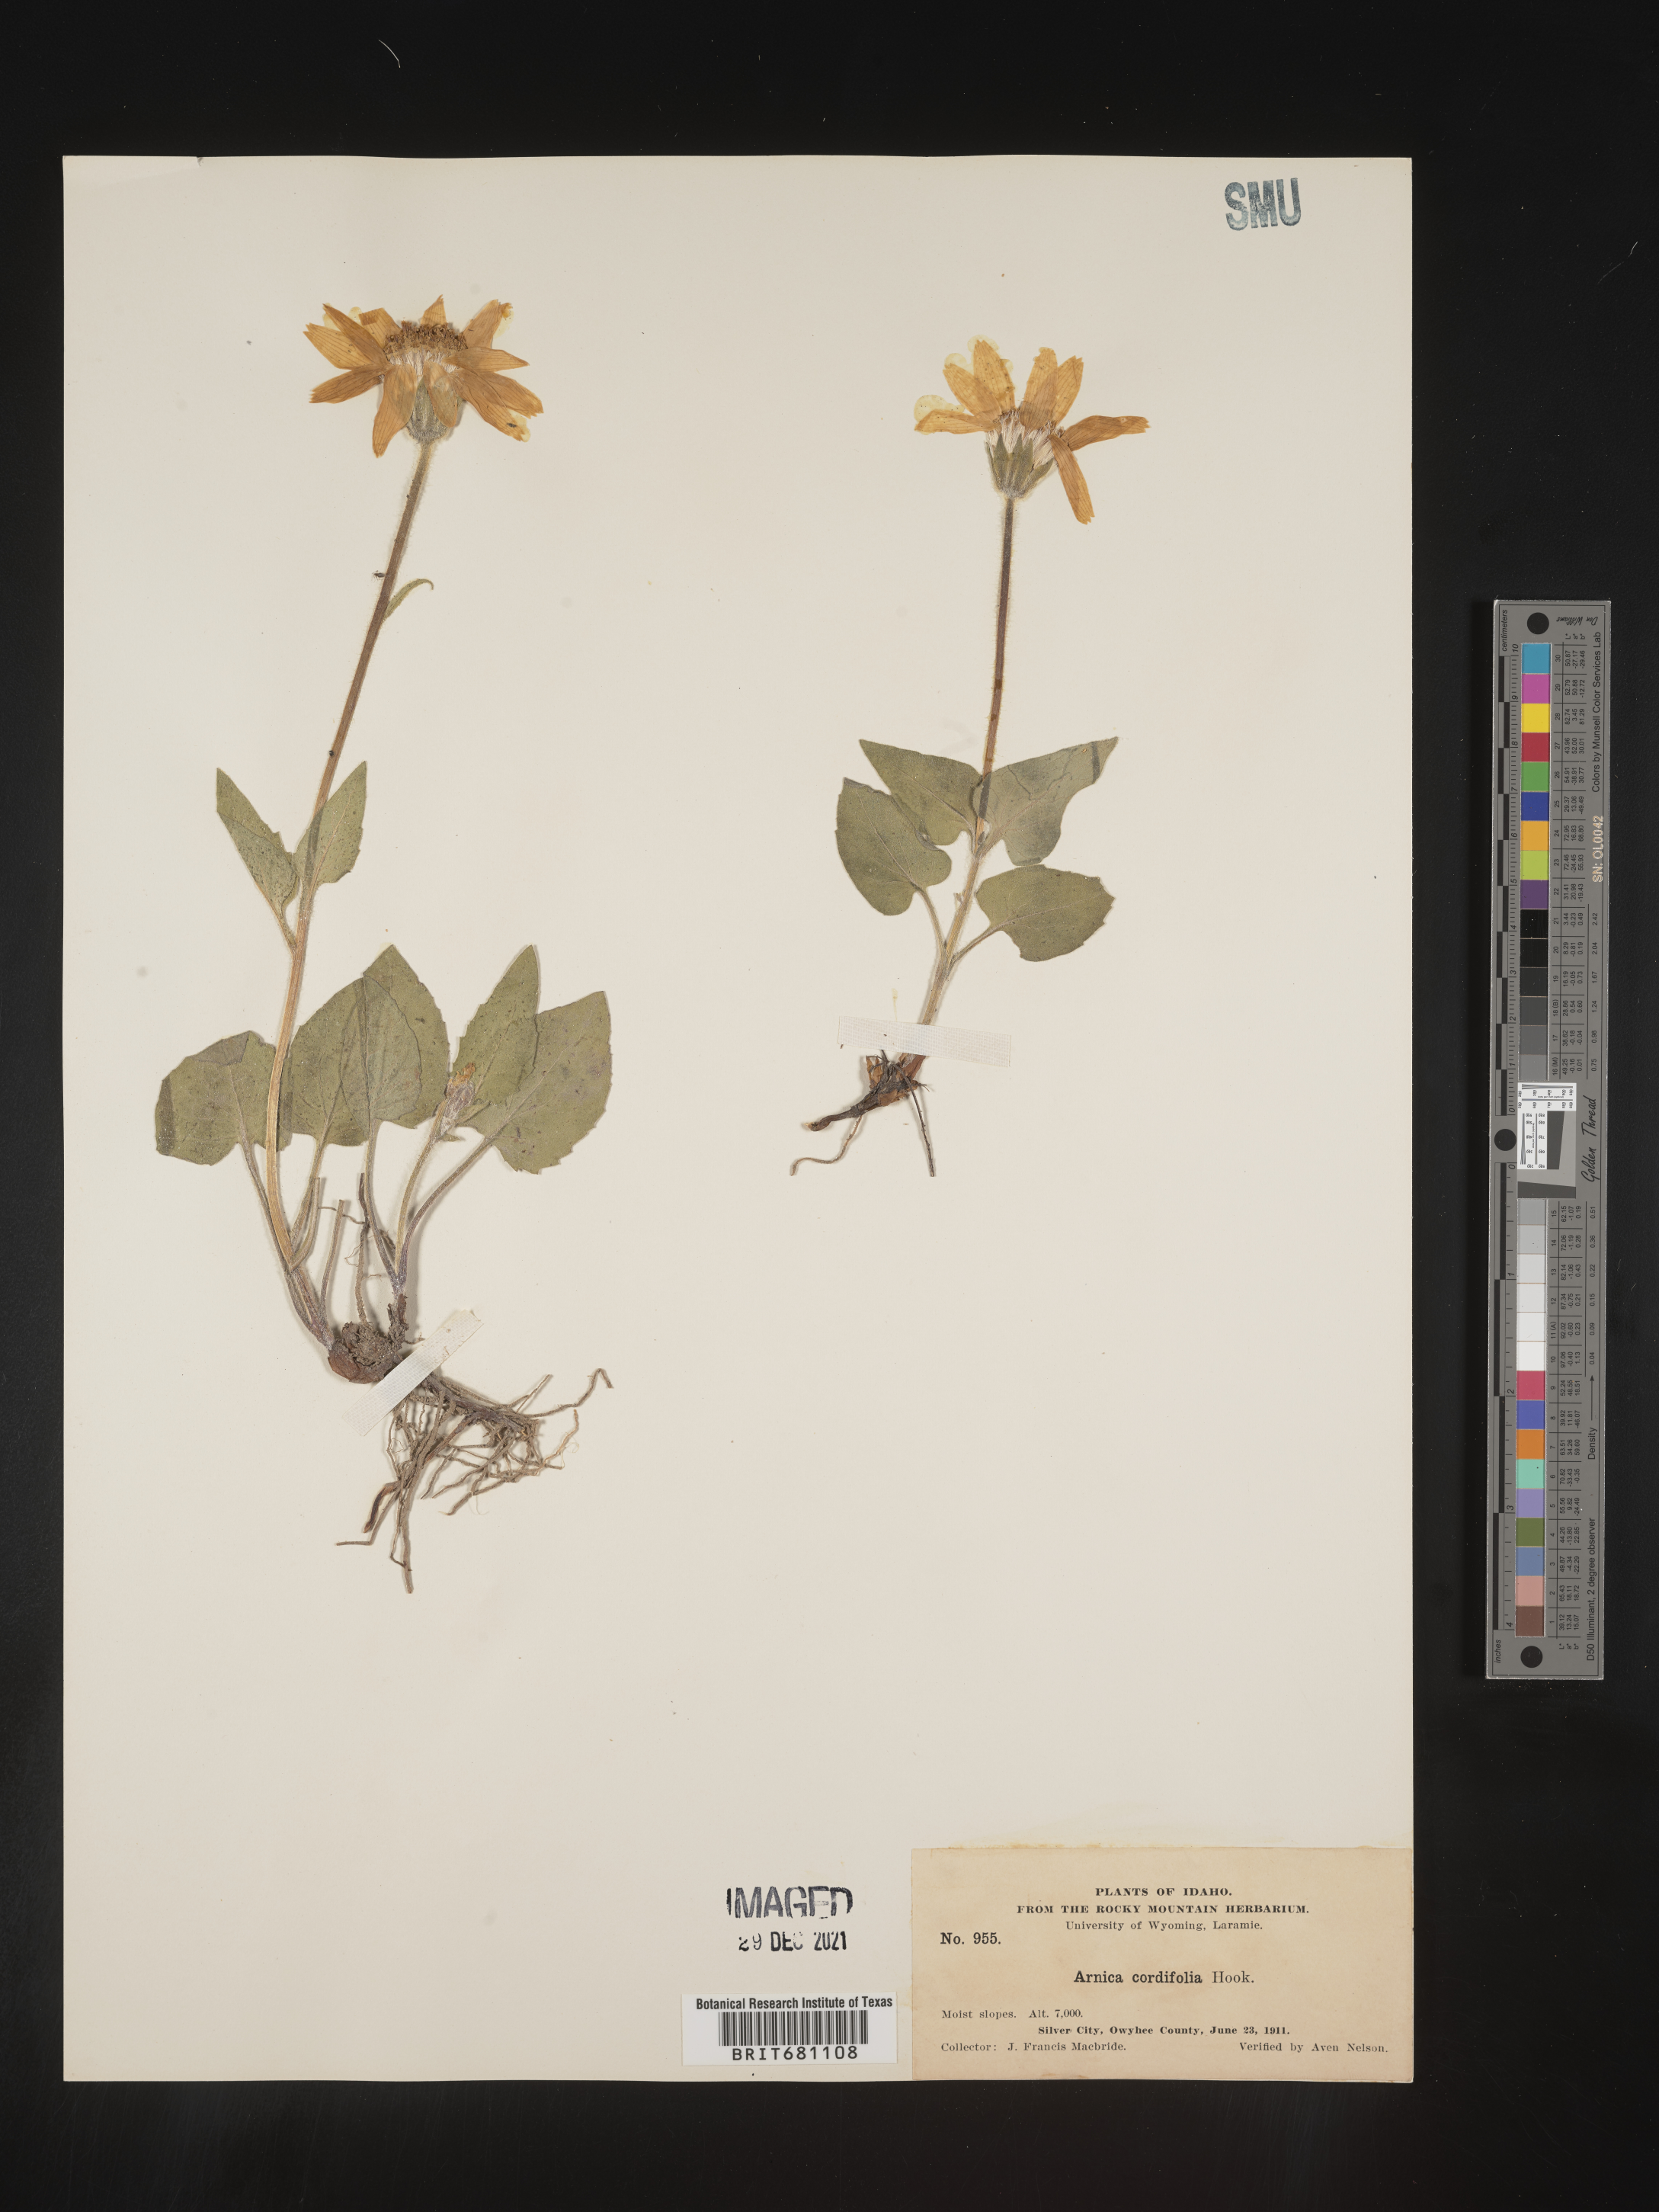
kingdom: Plantae
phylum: Tracheophyta
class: Magnoliopsida
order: Asterales
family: Asteraceae
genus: Arnica
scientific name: Arnica cordifolia
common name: Heart-leaf arnica
